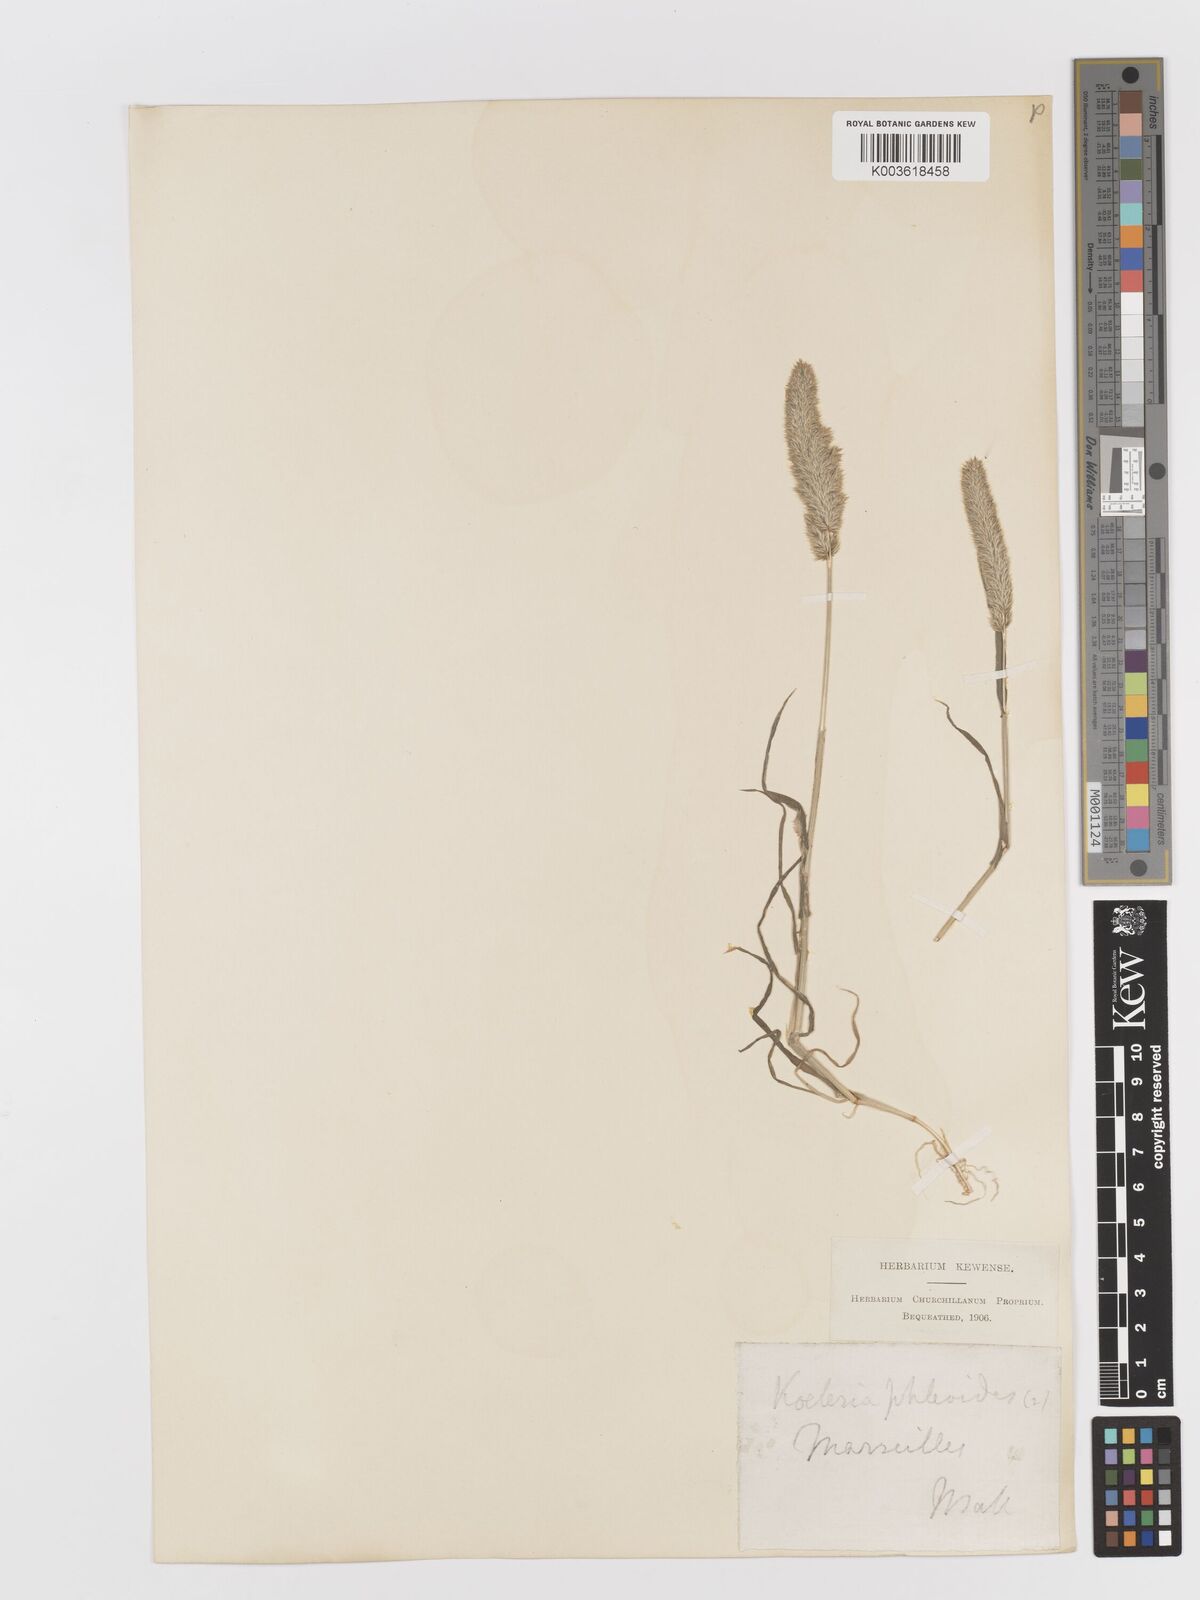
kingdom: Plantae
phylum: Tracheophyta
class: Liliopsida
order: Poales
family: Poaceae
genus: Rostraria
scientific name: Rostraria cristata
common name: Mediterranean hair-grass
